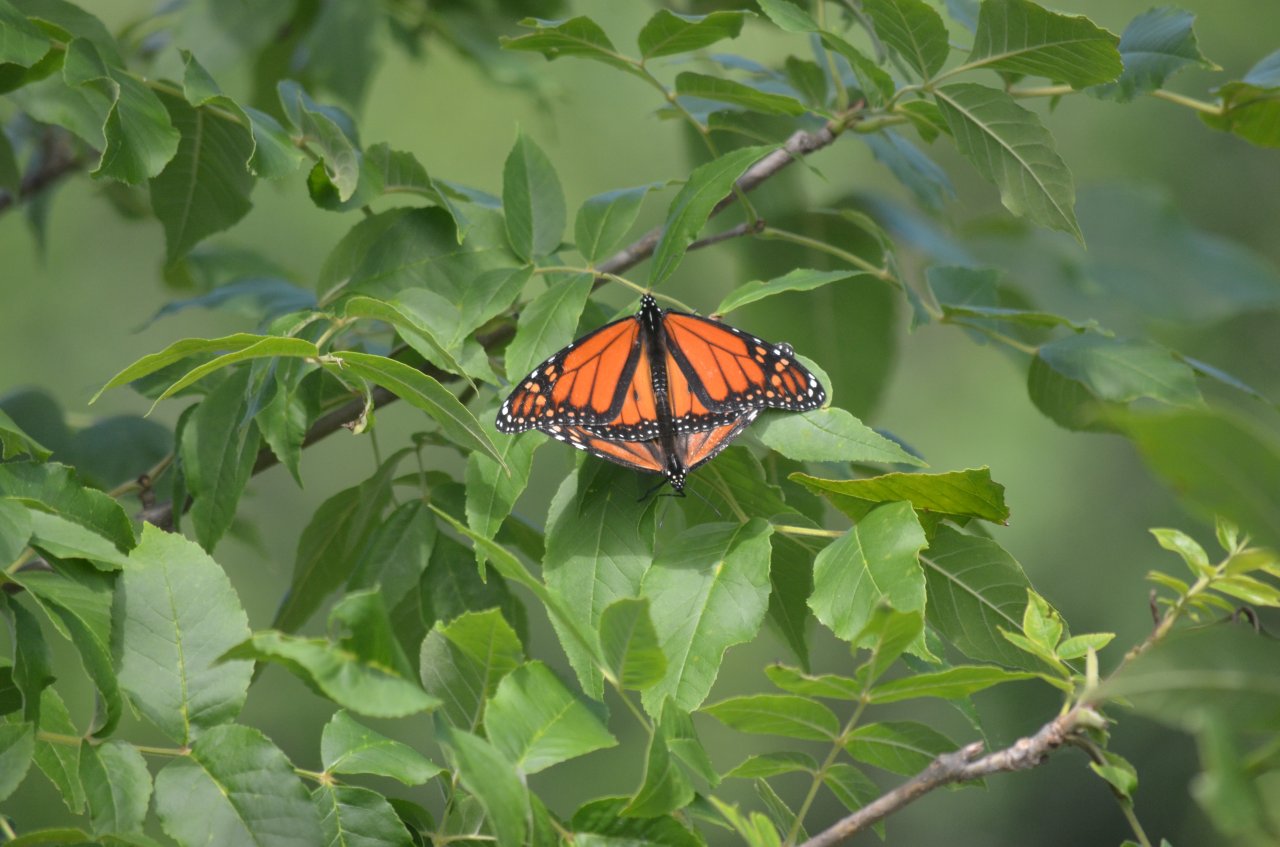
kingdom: Animalia
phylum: Arthropoda
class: Insecta
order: Lepidoptera
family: Nymphalidae
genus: Danaus
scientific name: Danaus plexippus
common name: Monarch
